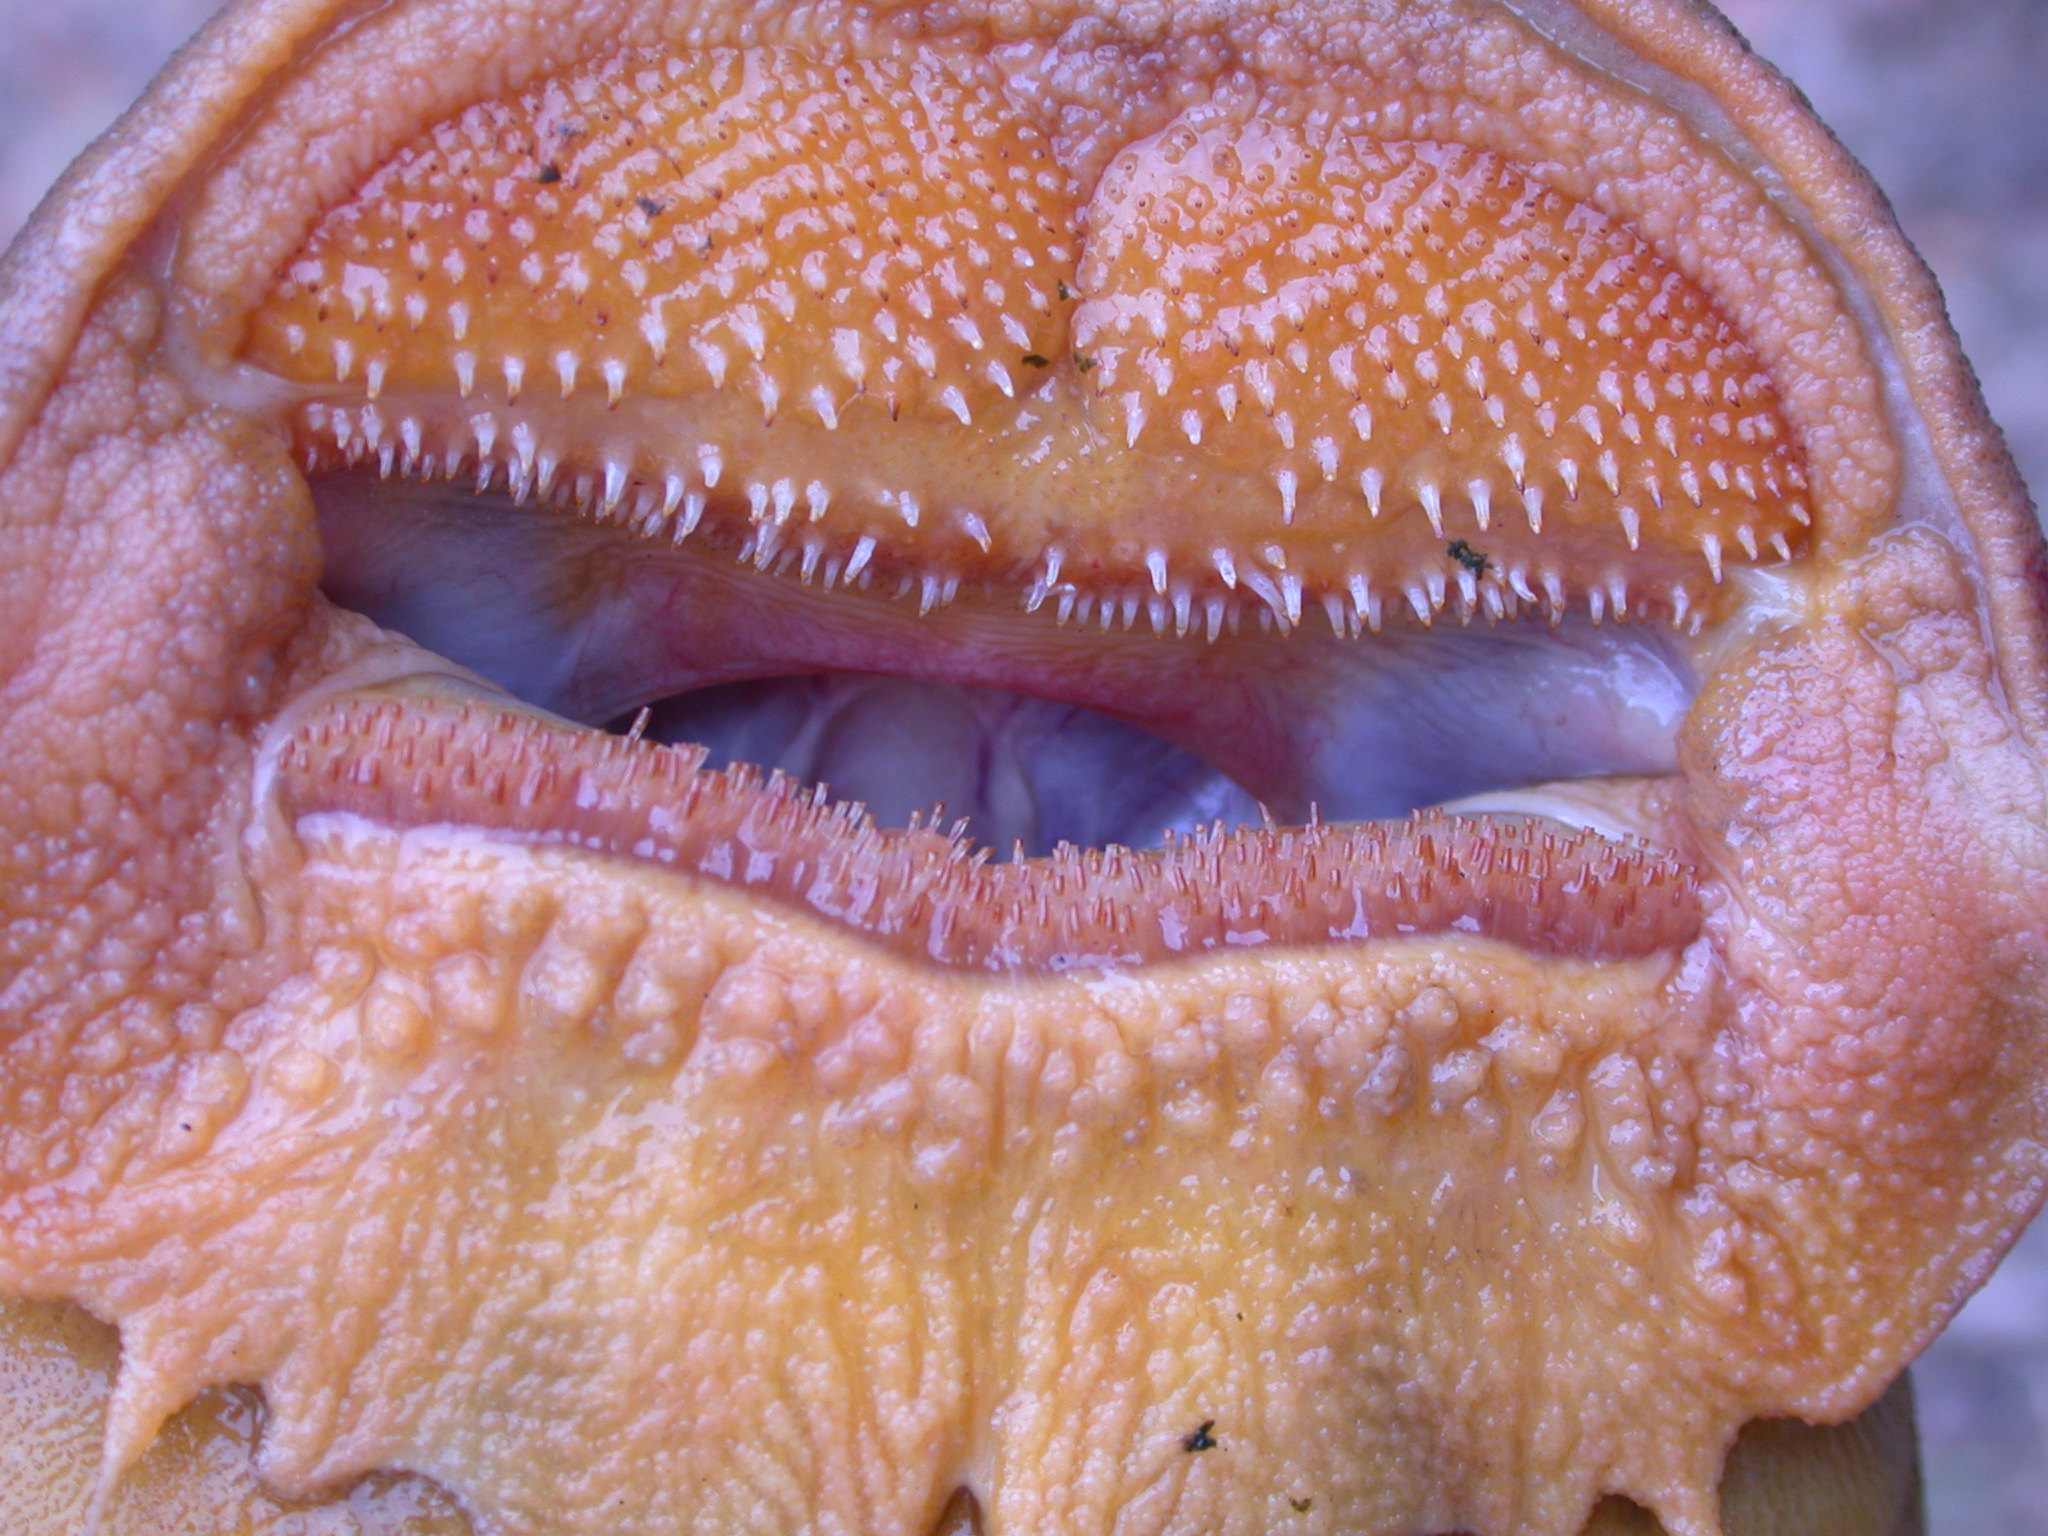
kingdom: Animalia
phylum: Chordata
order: Siluriformes
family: Mochokidae
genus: Euchilichthys
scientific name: Euchilichthys royauxi
